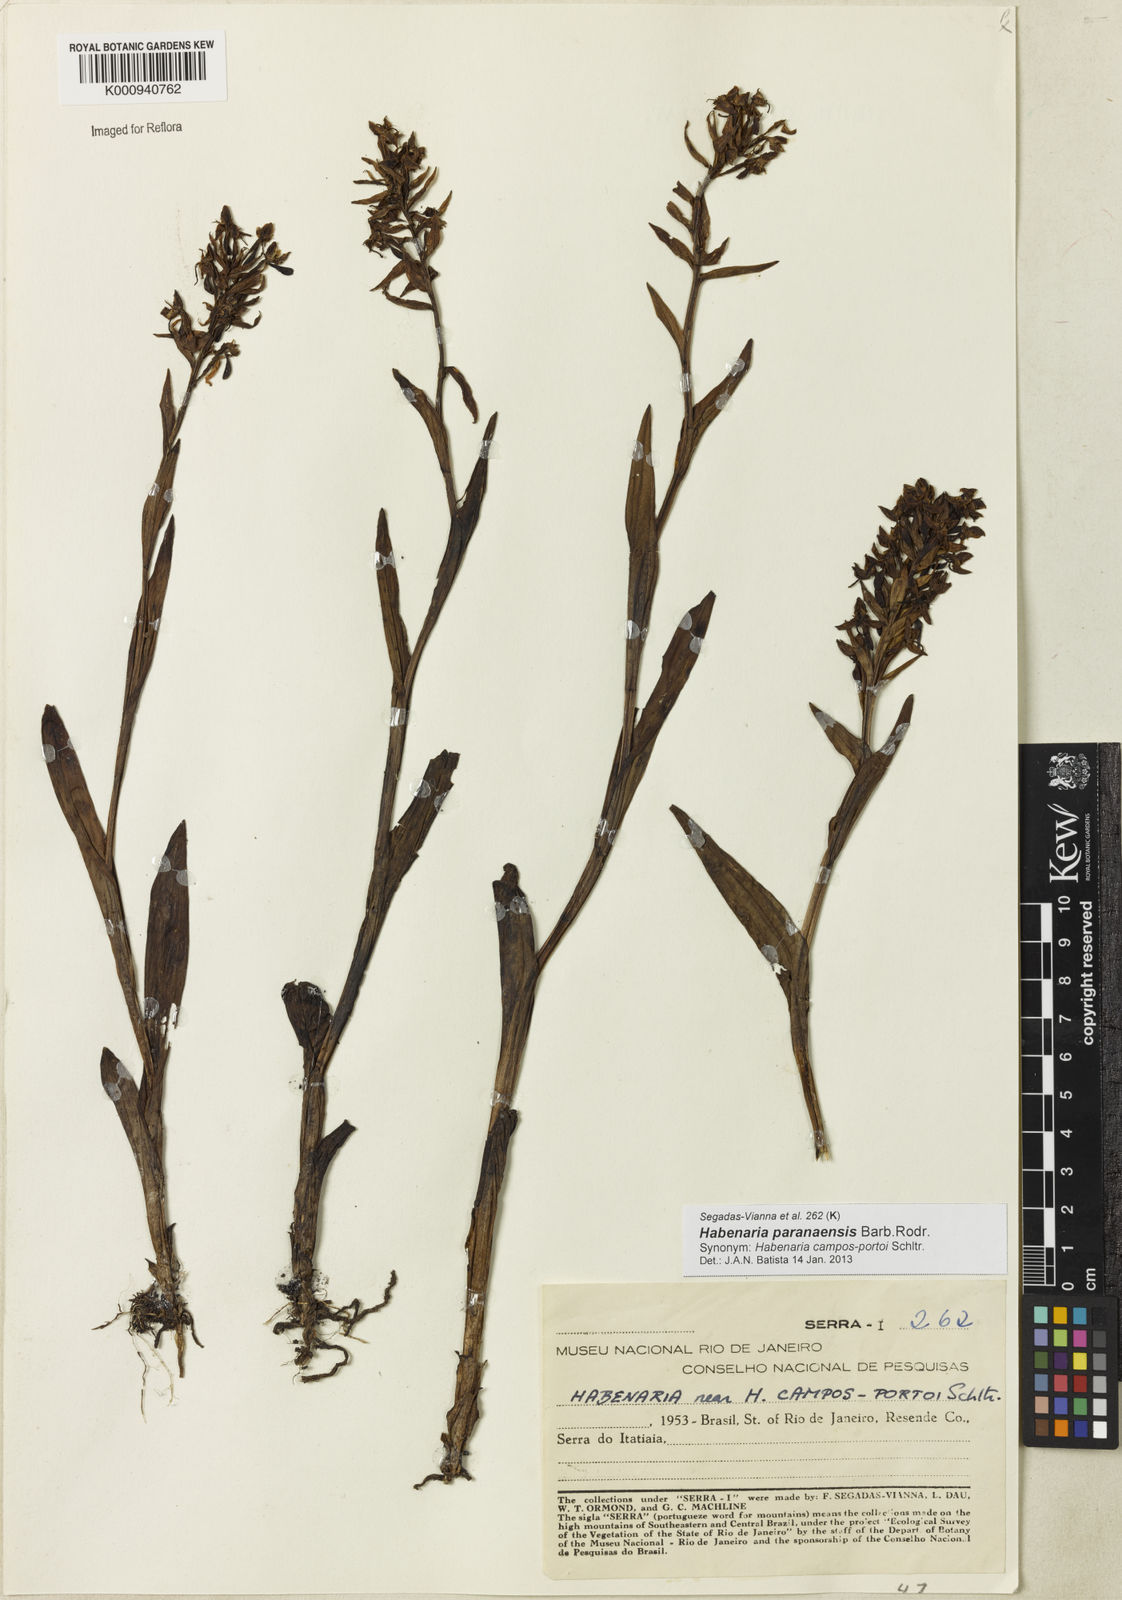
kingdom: Plantae
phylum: Tracheophyta
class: Liliopsida
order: Asparagales
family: Orchidaceae
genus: Habenaria
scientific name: Habenaria paranaensis
